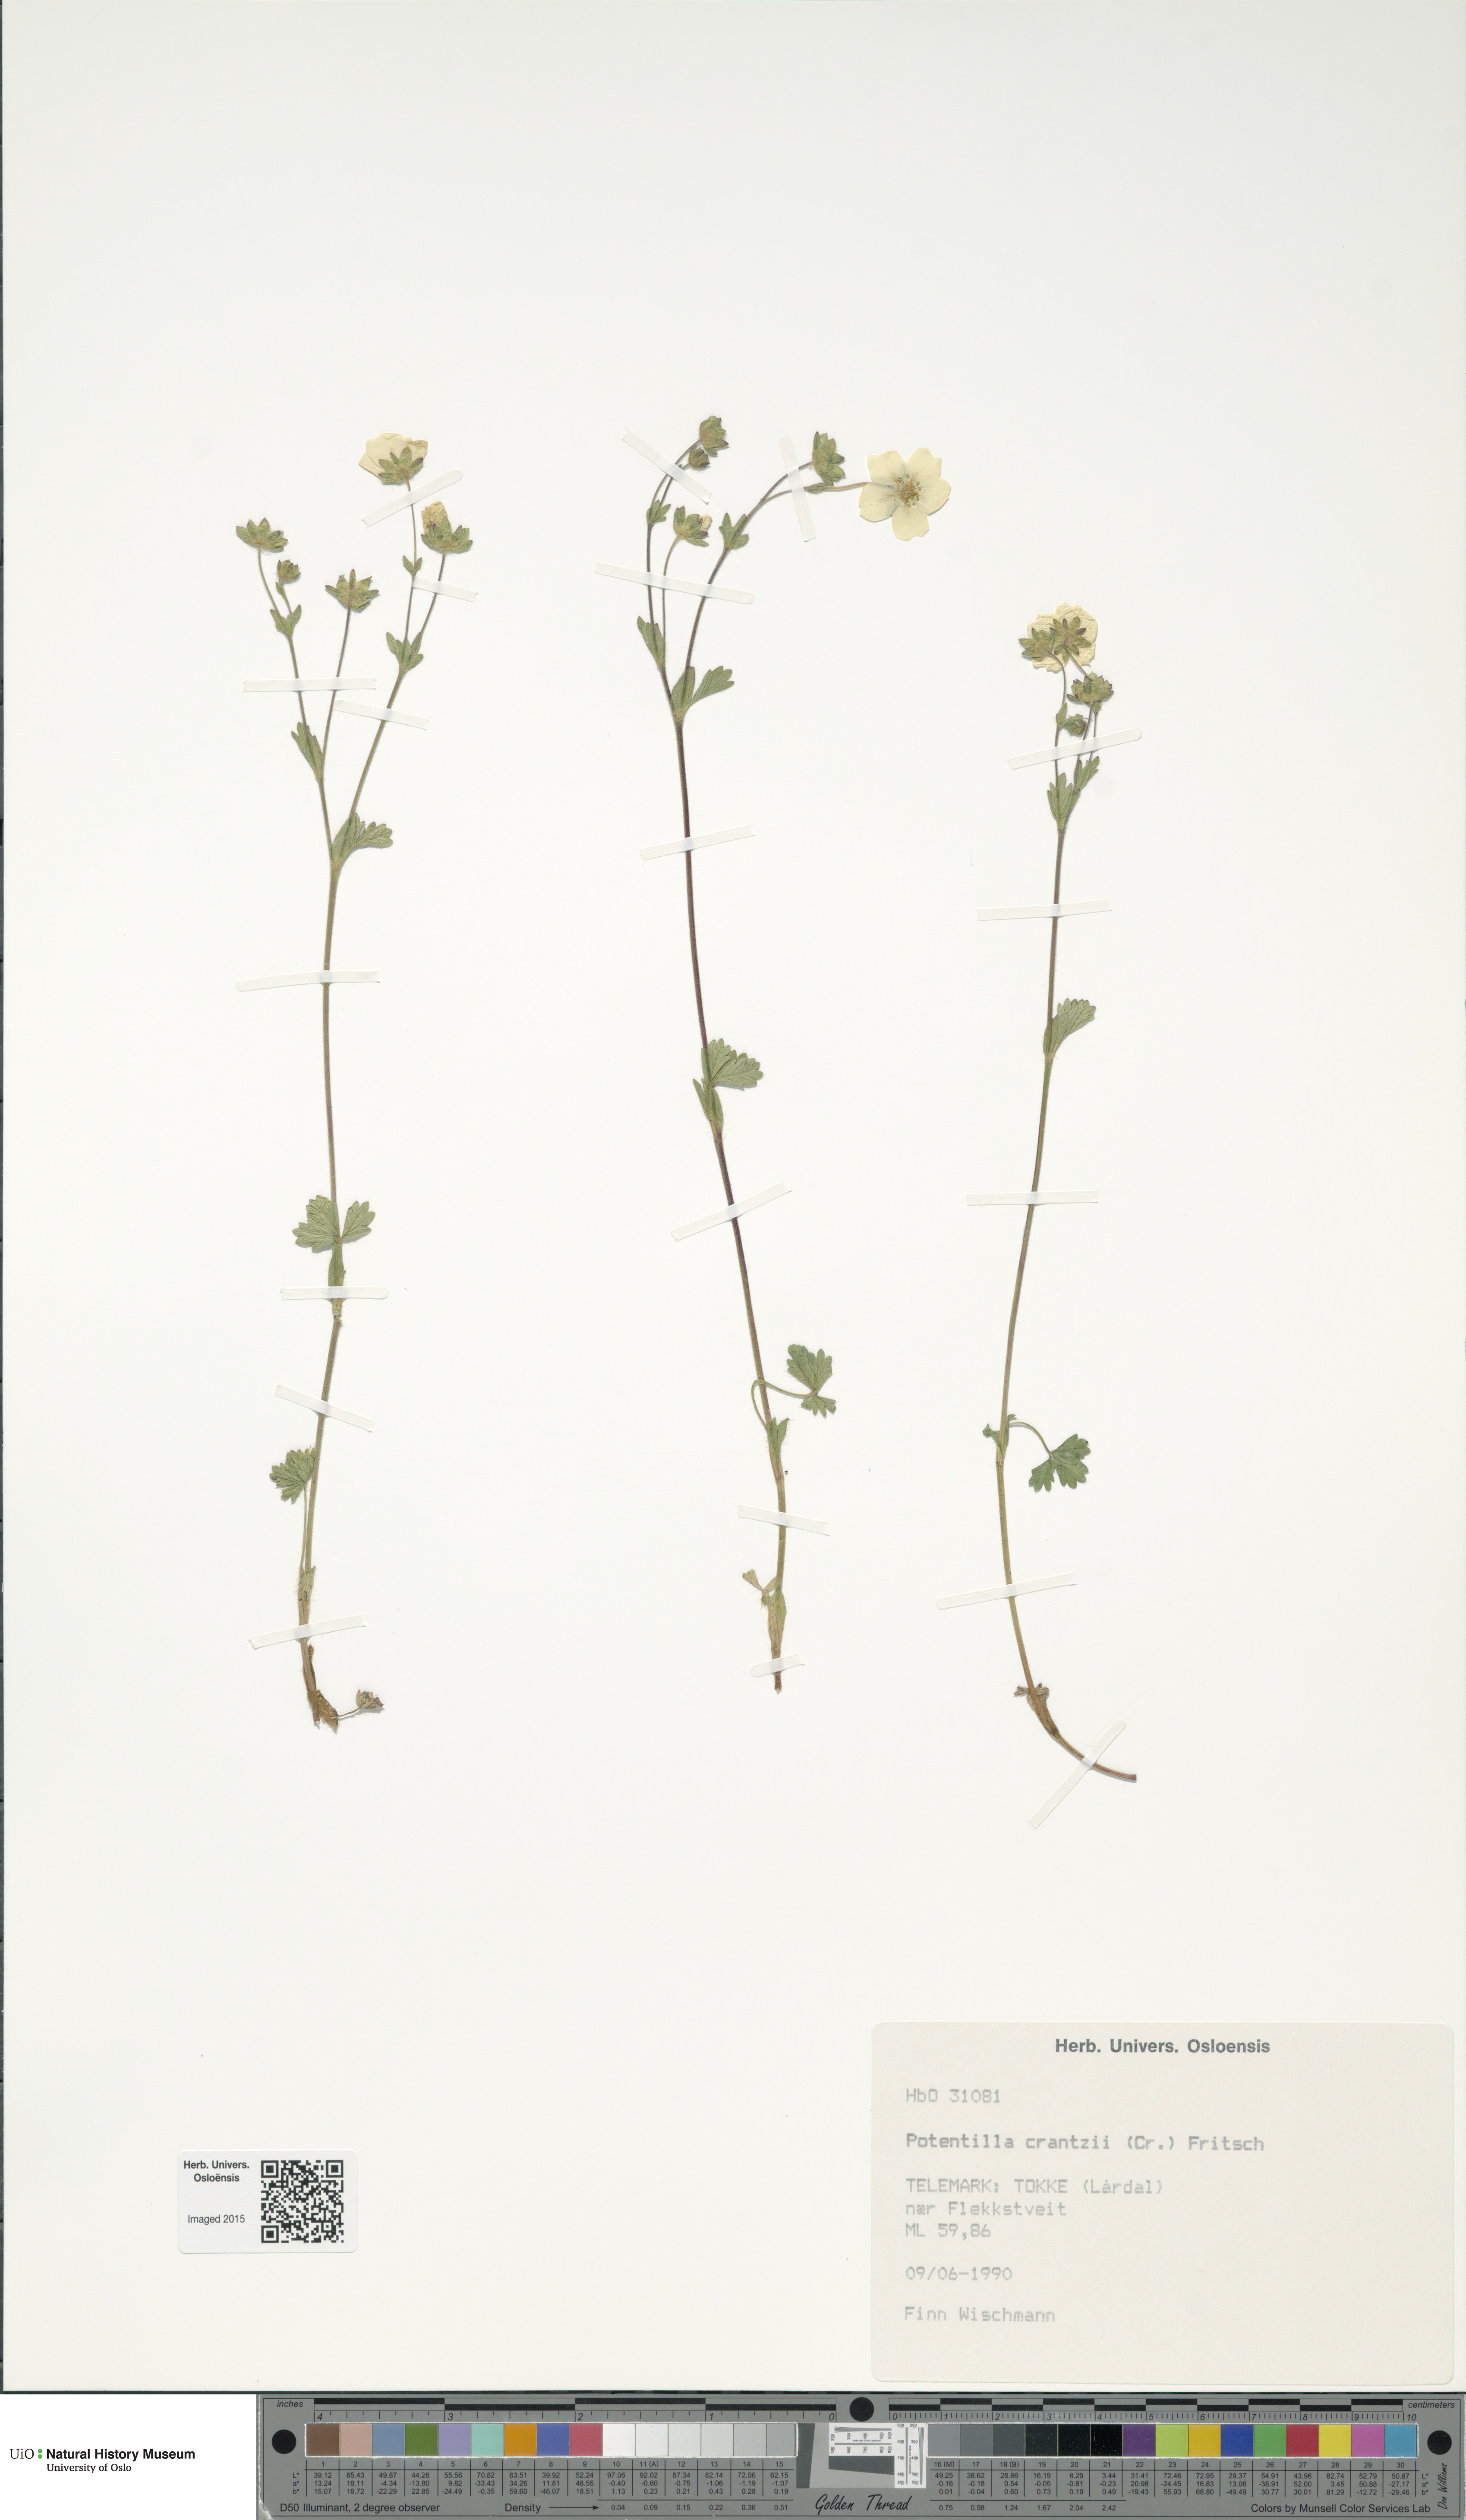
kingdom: Plantae
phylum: Tracheophyta
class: Magnoliopsida
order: Rosales
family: Rosaceae
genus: Potentilla
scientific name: Potentilla crantzii
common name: Alpine cinquefoil
